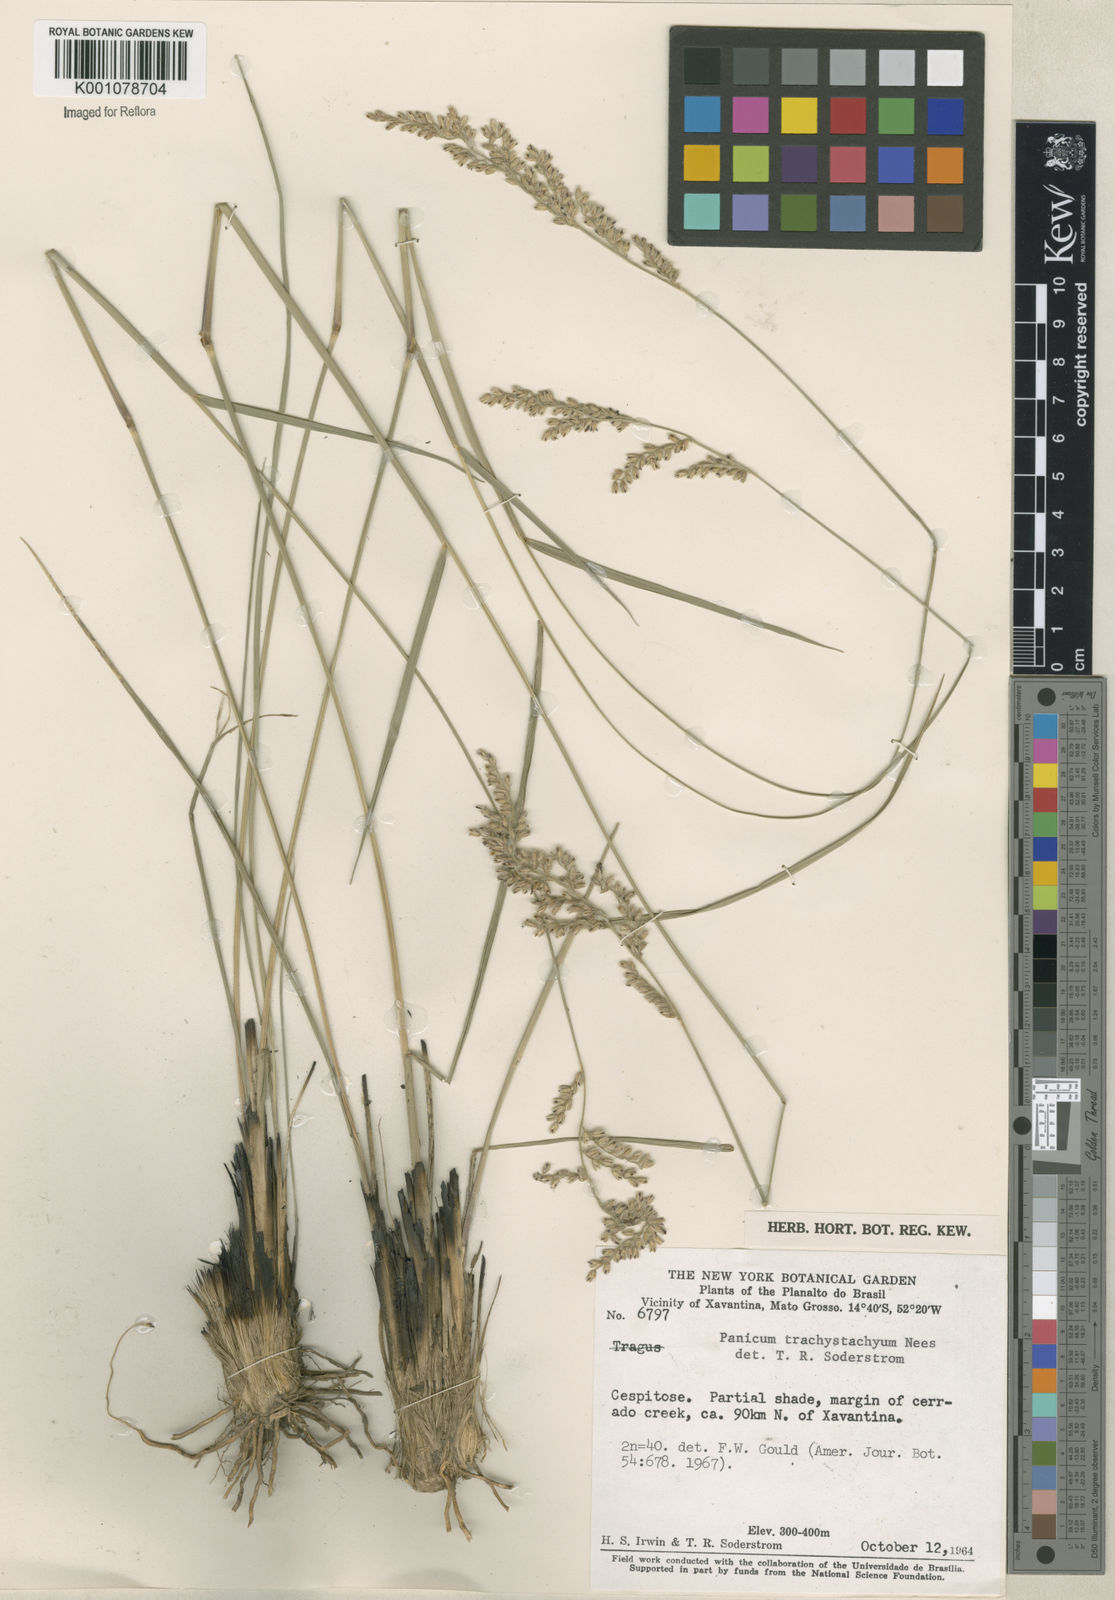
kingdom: Plantae
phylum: Tracheophyta
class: Liliopsida
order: Poales
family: Poaceae
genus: Anthaenantiopsis
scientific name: Anthaenantiopsis trachystachya
